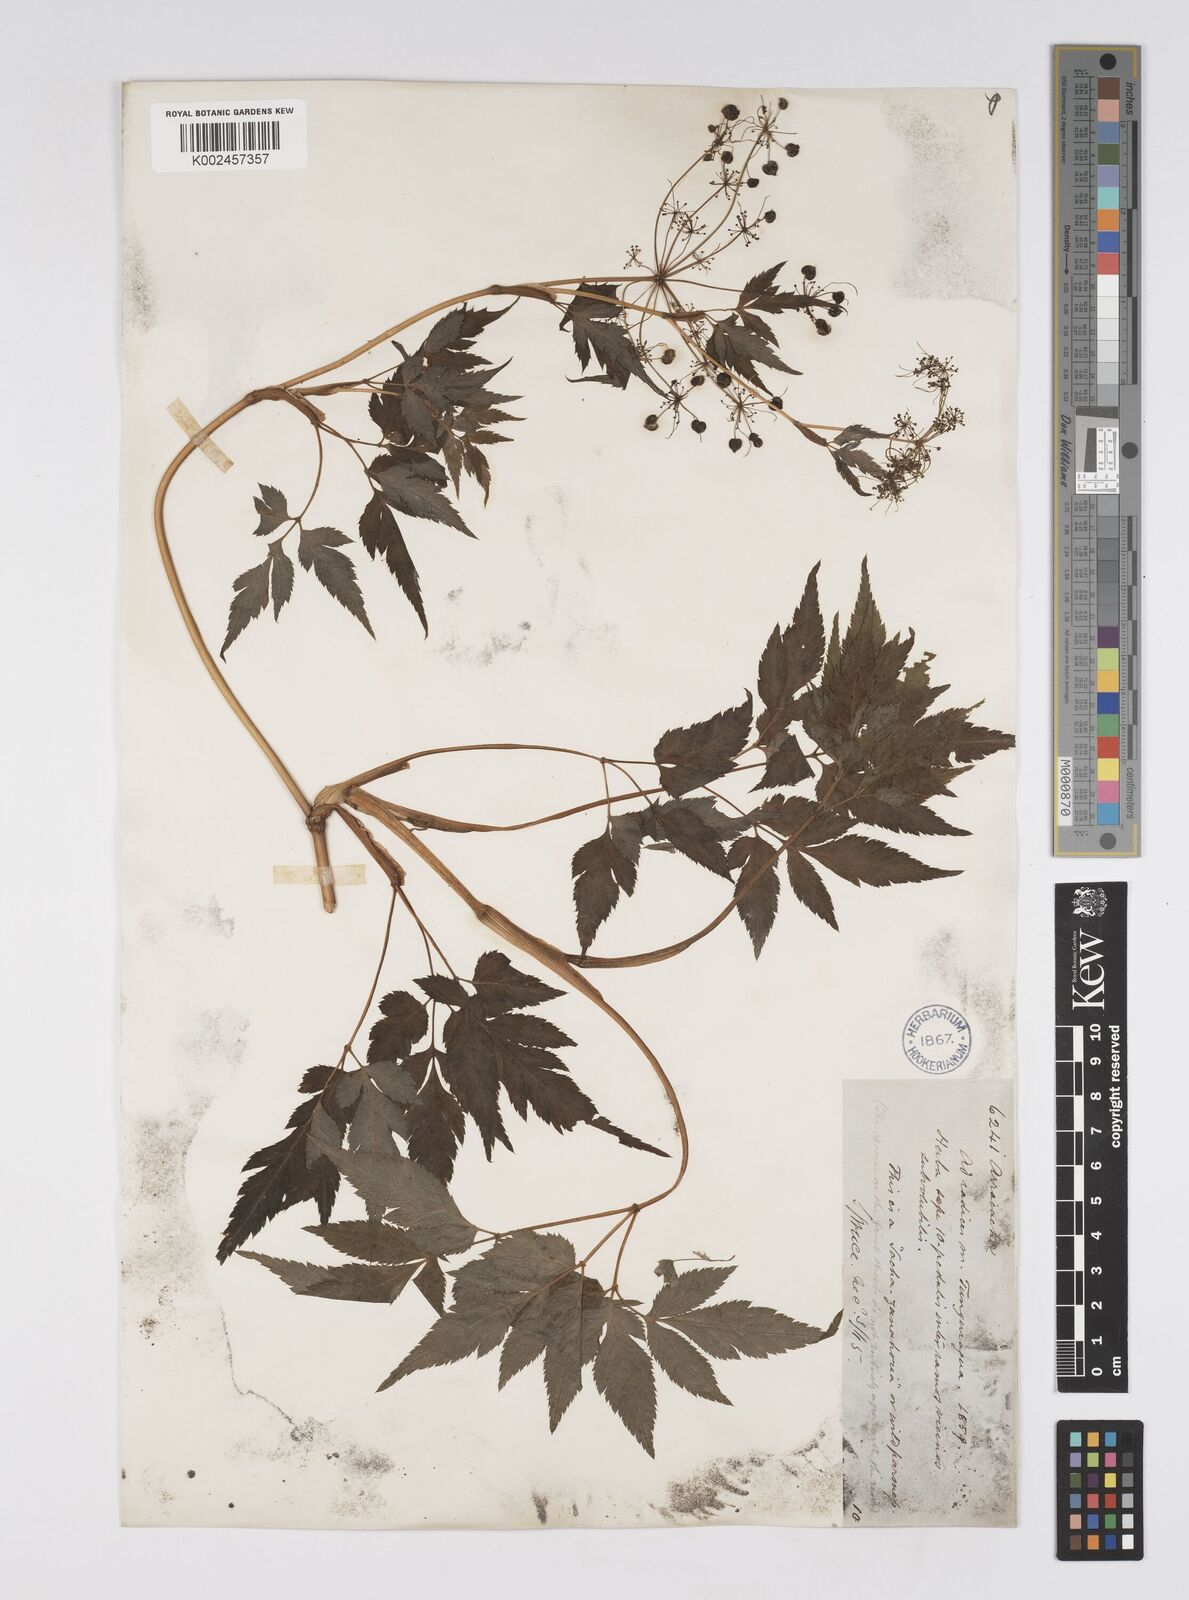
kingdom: Plantae
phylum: Tracheophyta
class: Magnoliopsida
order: Apiales
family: Apiaceae
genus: Neonelsonia
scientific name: Neonelsonia acuminata
